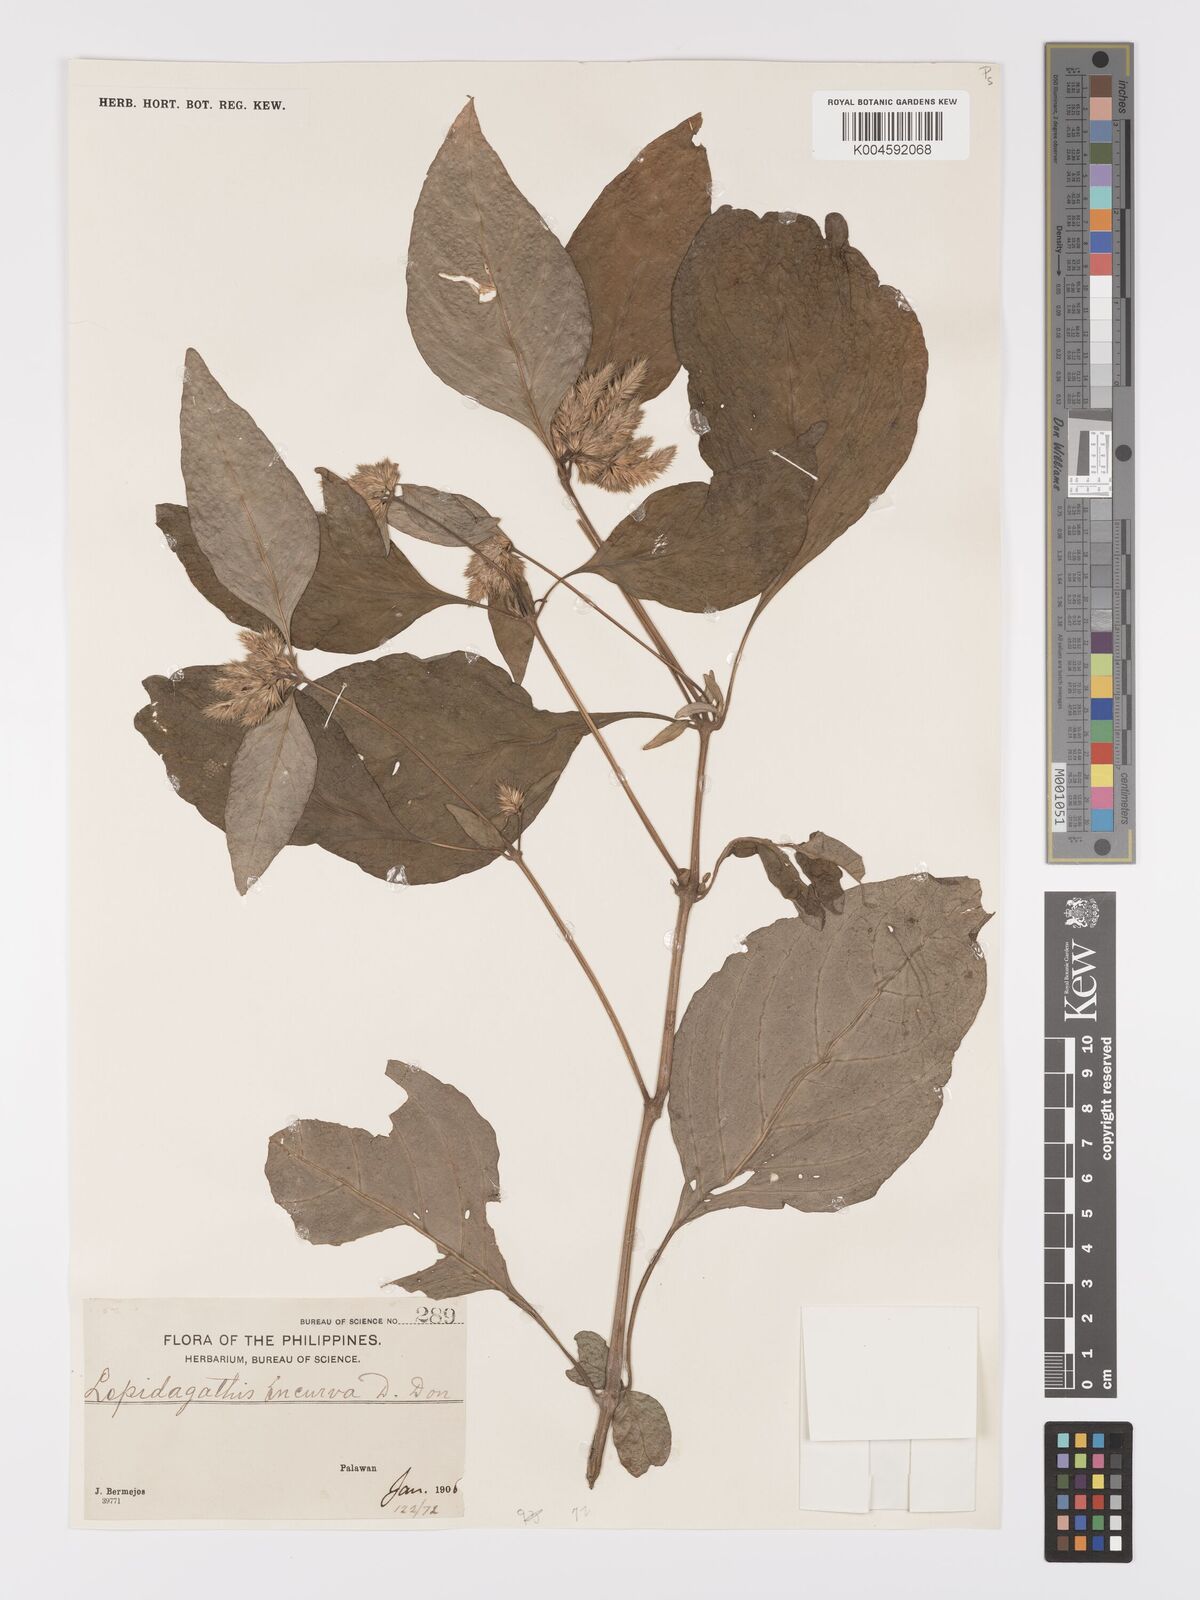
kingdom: Plantae
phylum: Tracheophyta
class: Magnoliopsida
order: Lamiales
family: Acanthaceae
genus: Lepidagathis
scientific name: Lepidagathis incurva
